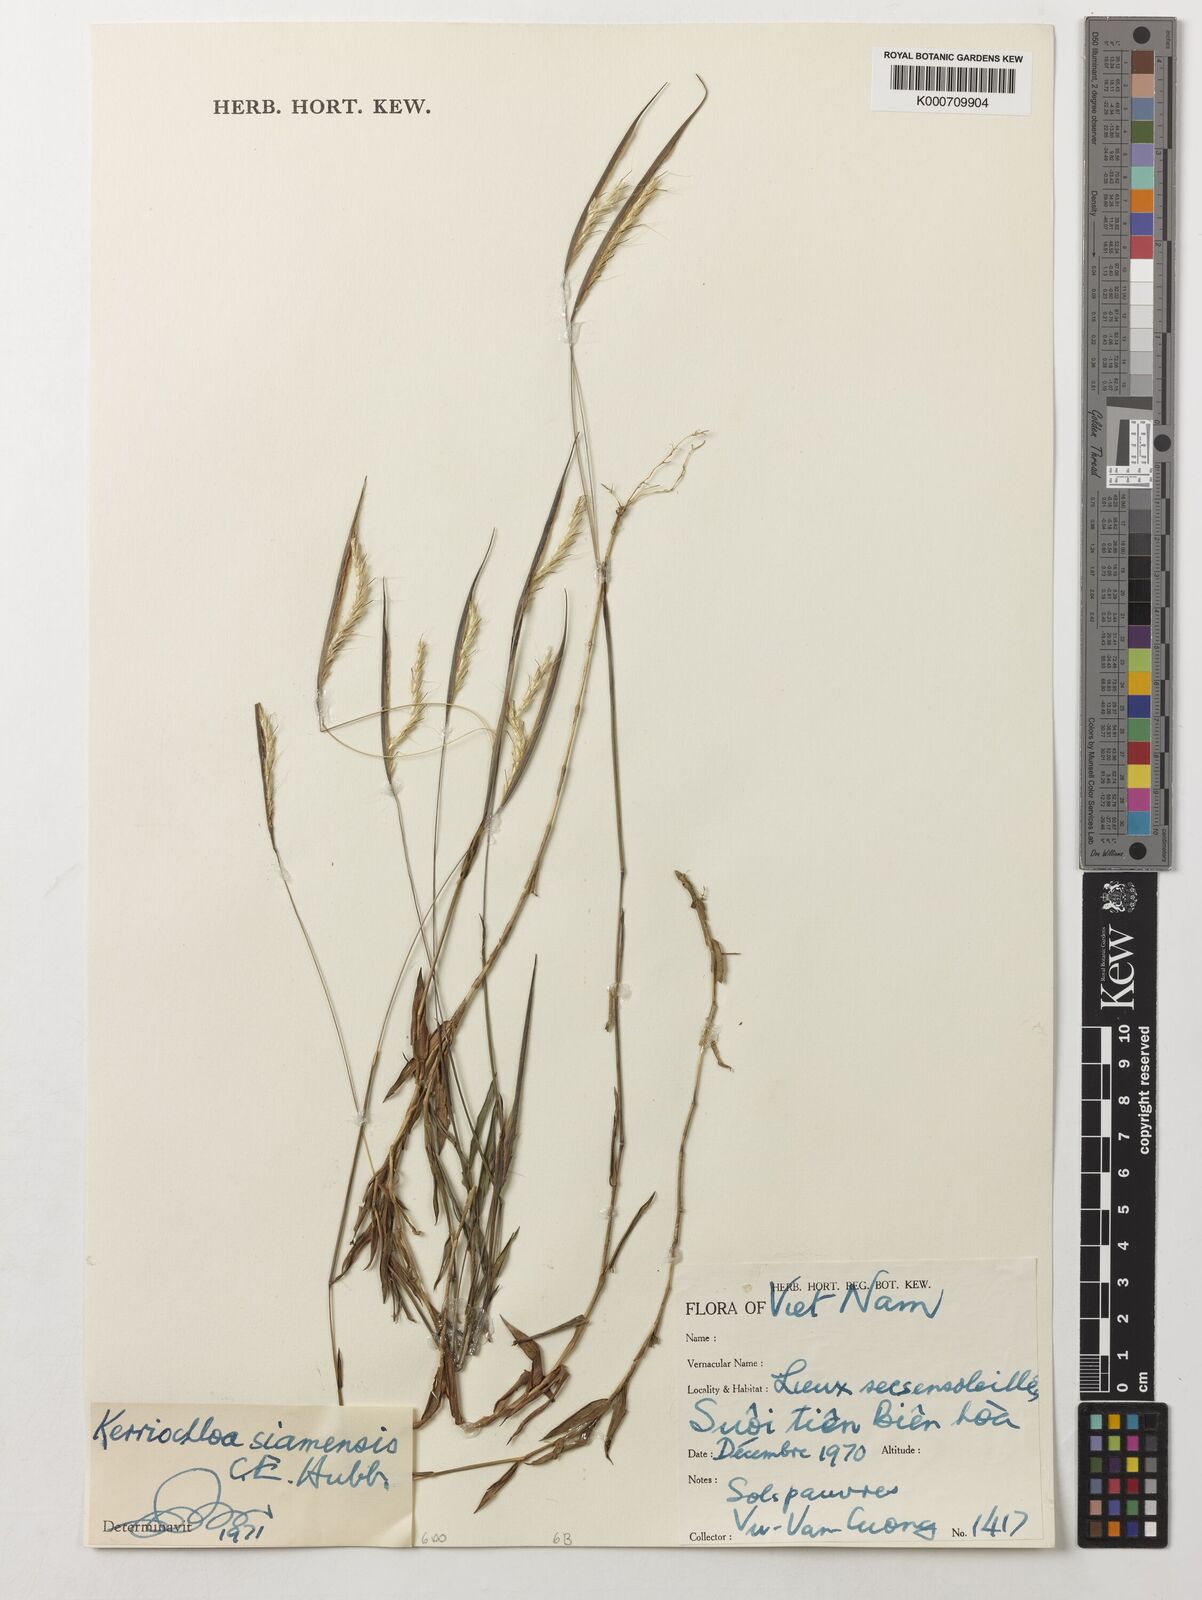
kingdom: Plantae
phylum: Tracheophyta
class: Liliopsida
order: Poales
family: Poaceae
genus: Kerriochloa
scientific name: Kerriochloa siamensis
